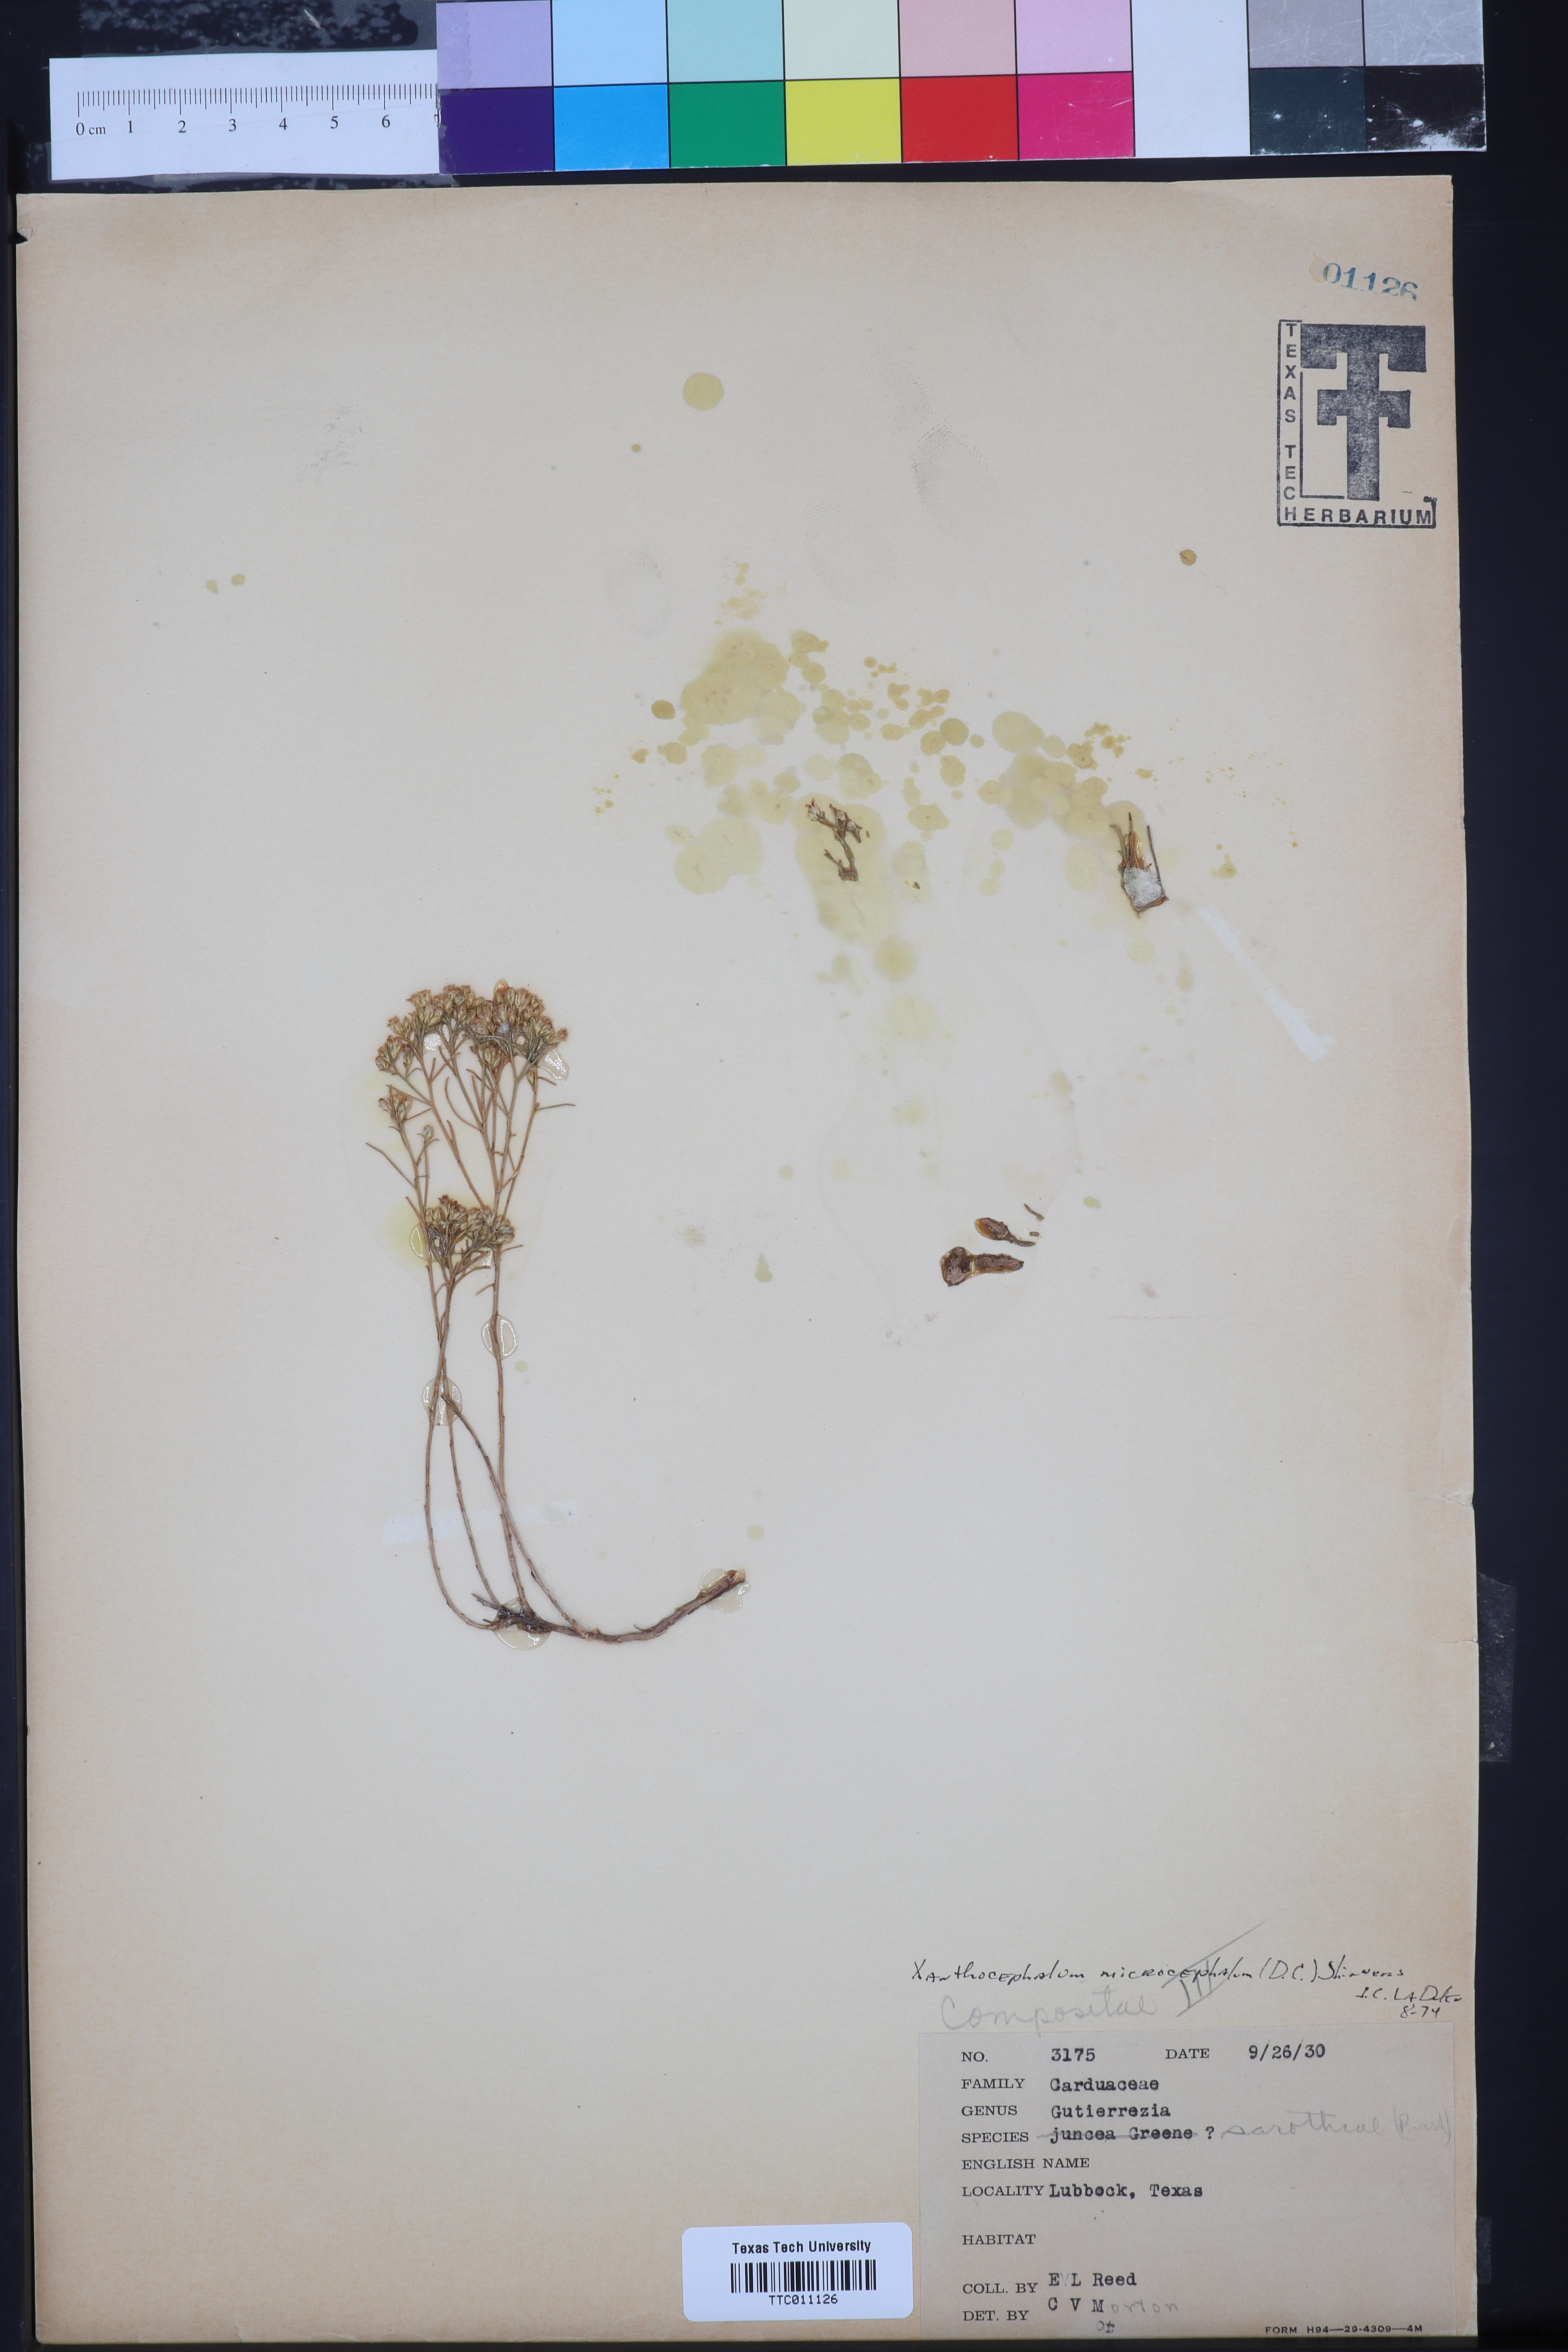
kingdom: Plantae
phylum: Tracheophyta
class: Magnoliopsida
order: Asterales
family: Asteraceae
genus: Gutierrezia
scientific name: Gutierrezia microcephala
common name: Thread snakeweed
